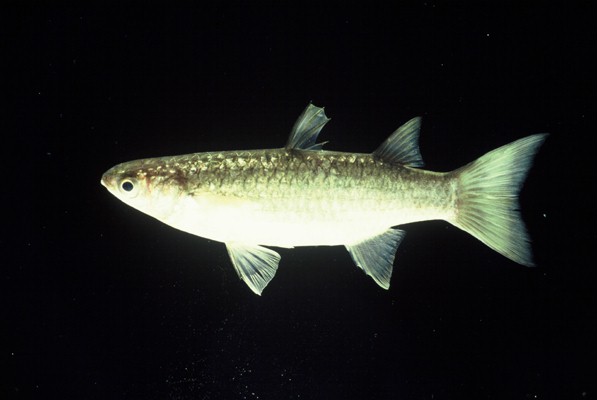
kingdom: Animalia
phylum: Chordata
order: Mugiliformes
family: Mugilidae
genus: Planiliza
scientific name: Planiliza melinopterus
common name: Otomebora mullet
